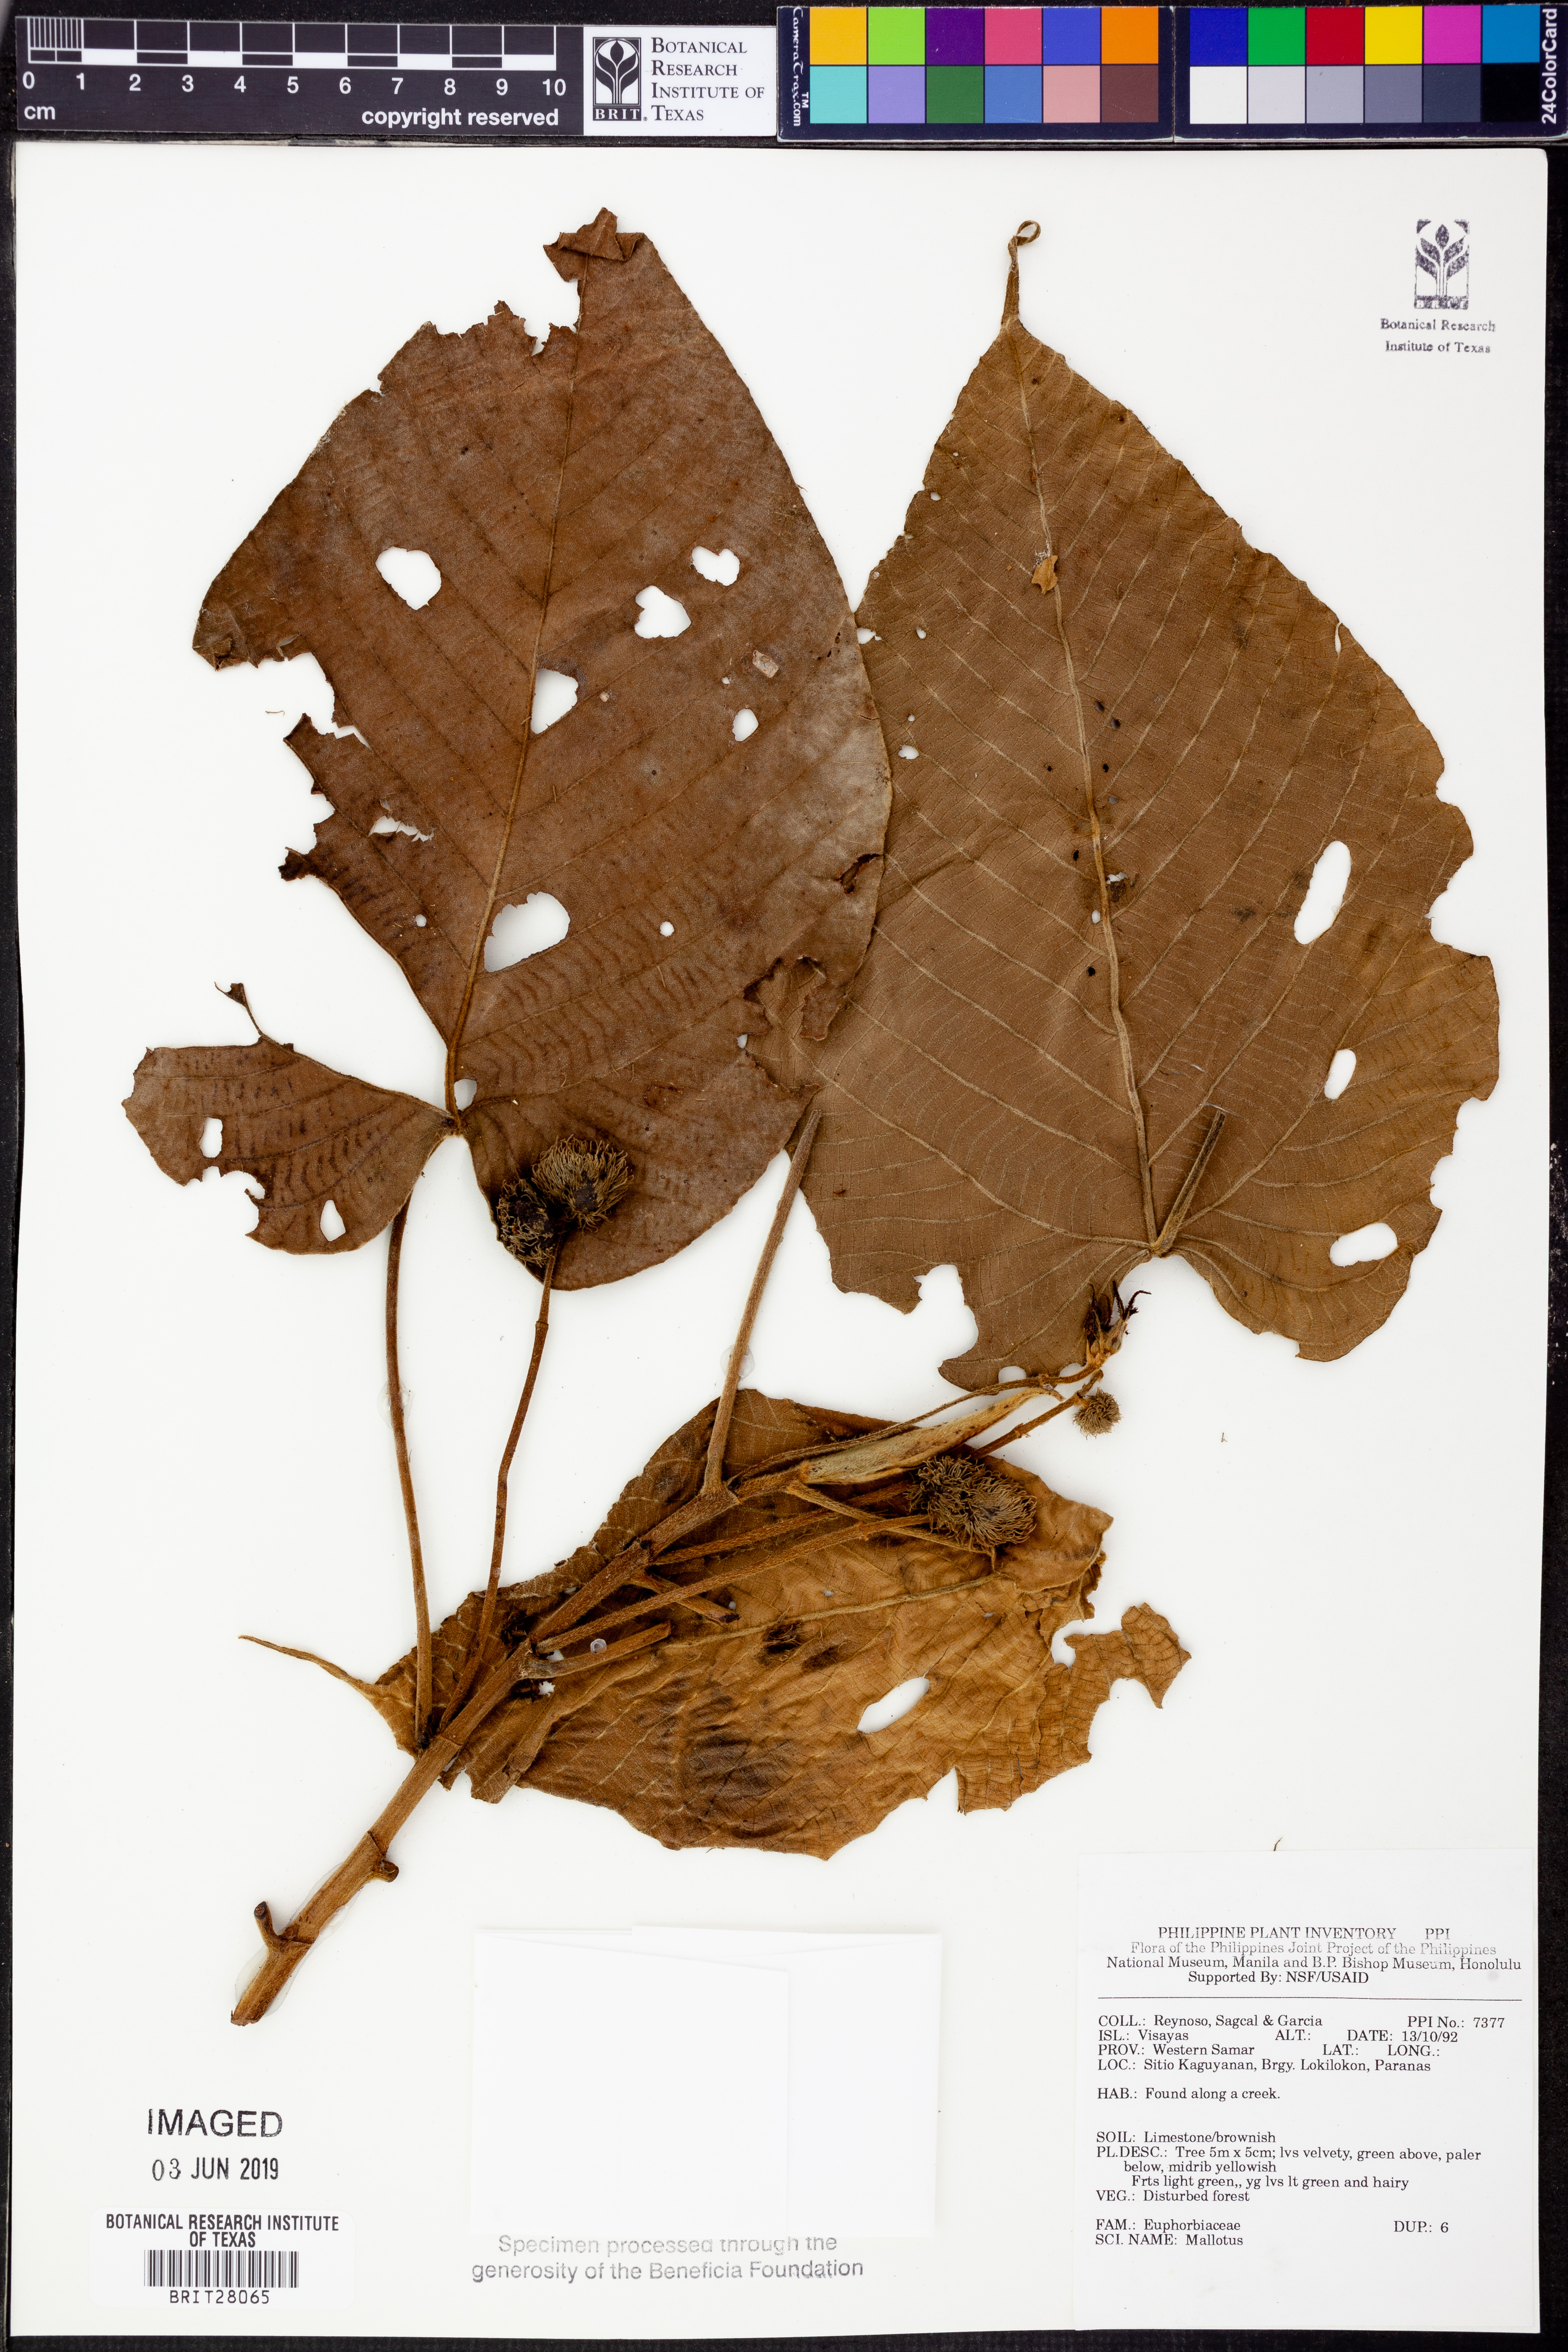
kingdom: Plantae
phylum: Tracheophyta
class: Magnoliopsida
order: Malpighiales
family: Euphorbiaceae
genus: Mallotus
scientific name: Mallotus
